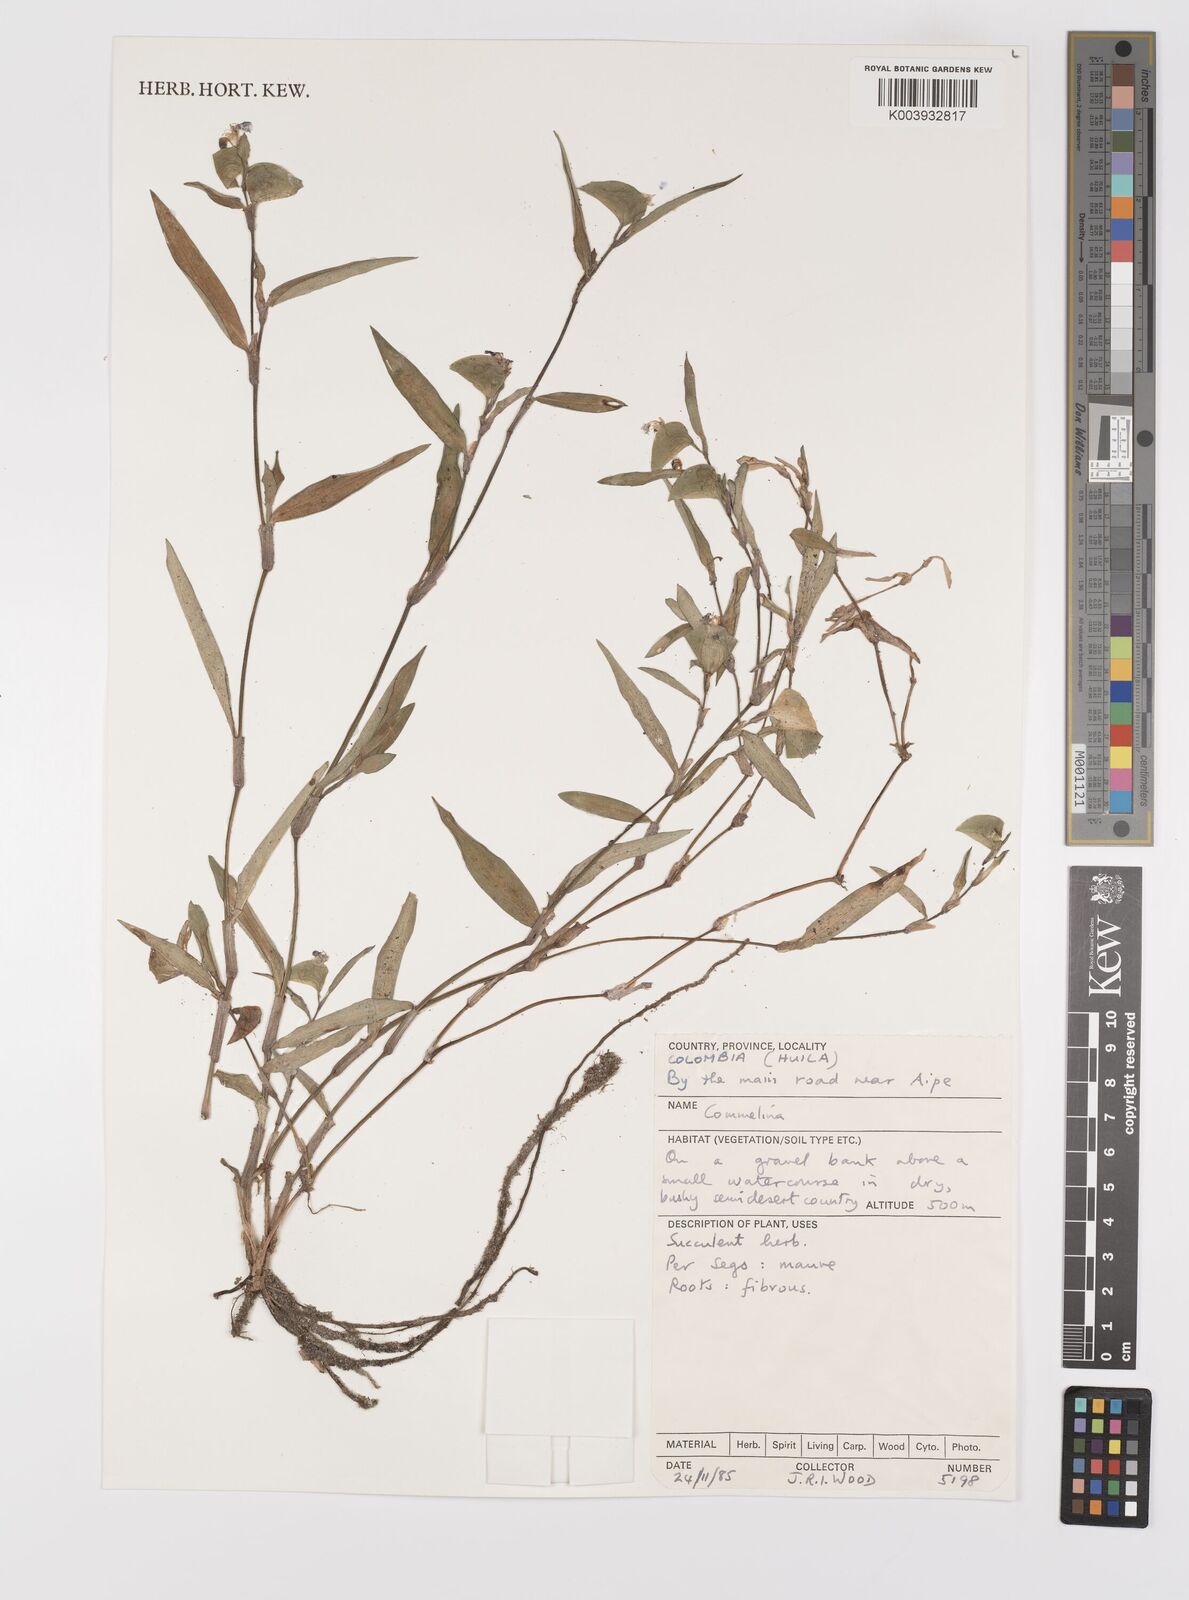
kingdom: Plantae
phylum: Tracheophyta
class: Liliopsida
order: Commelinales
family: Commelinaceae
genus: Commelina
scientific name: Commelina
